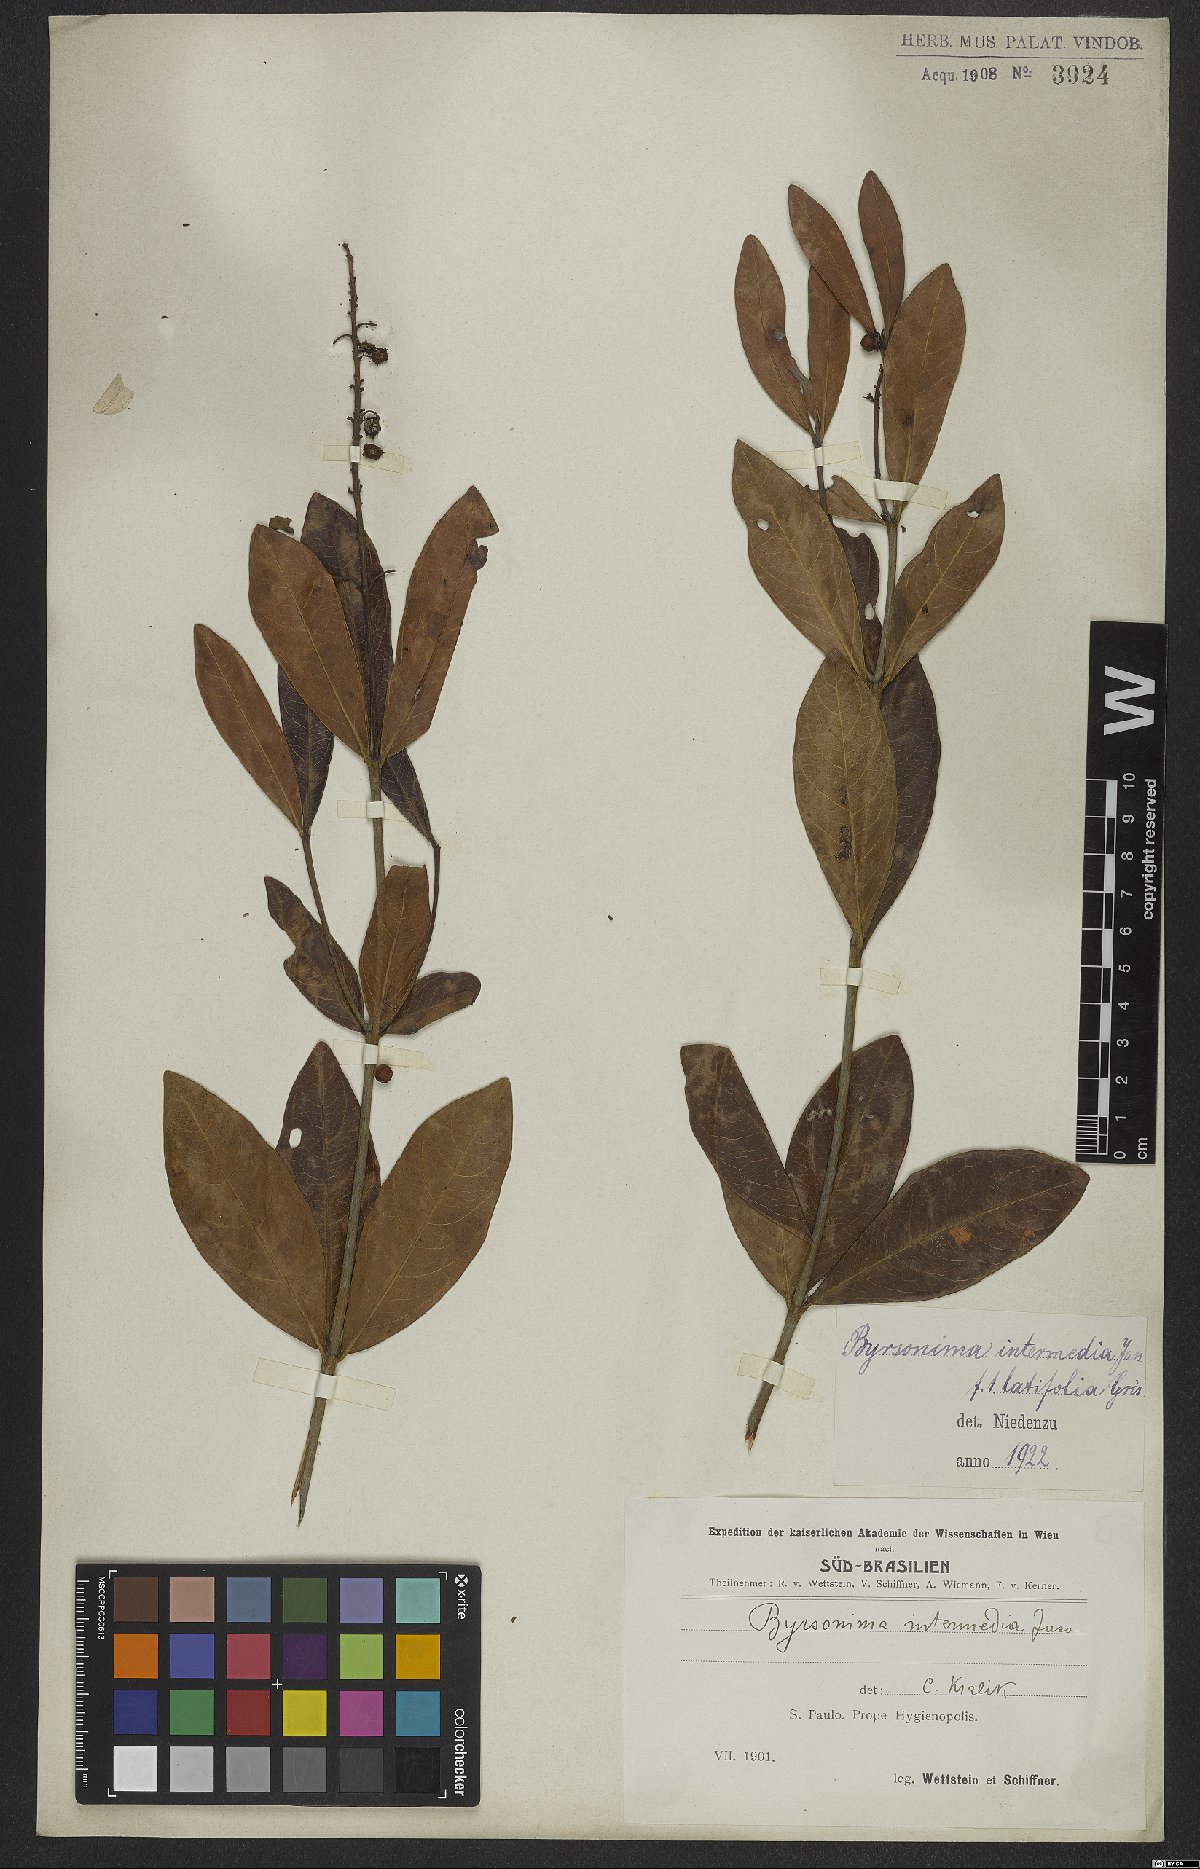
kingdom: Plantae
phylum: Tracheophyta
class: Magnoliopsida
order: Malpighiales
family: Malpighiaceae
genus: Byrsonima
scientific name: Byrsonima intermedia
